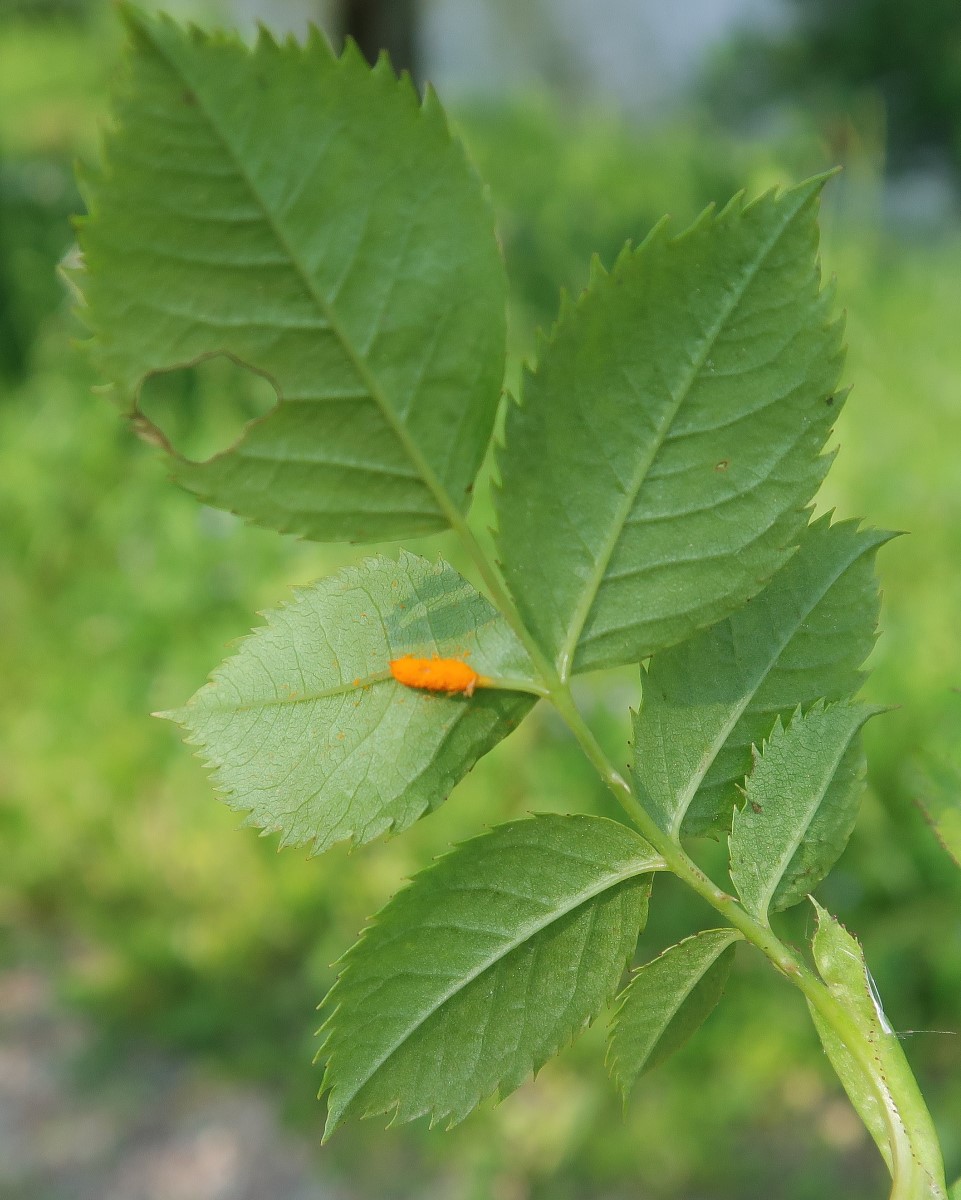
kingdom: Fungi
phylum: Basidiomycota
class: Pucciniomycetes
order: Pucciniales
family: Phragmidiaceae
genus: Phragmidium
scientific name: Phragmidium
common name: flercellerust
